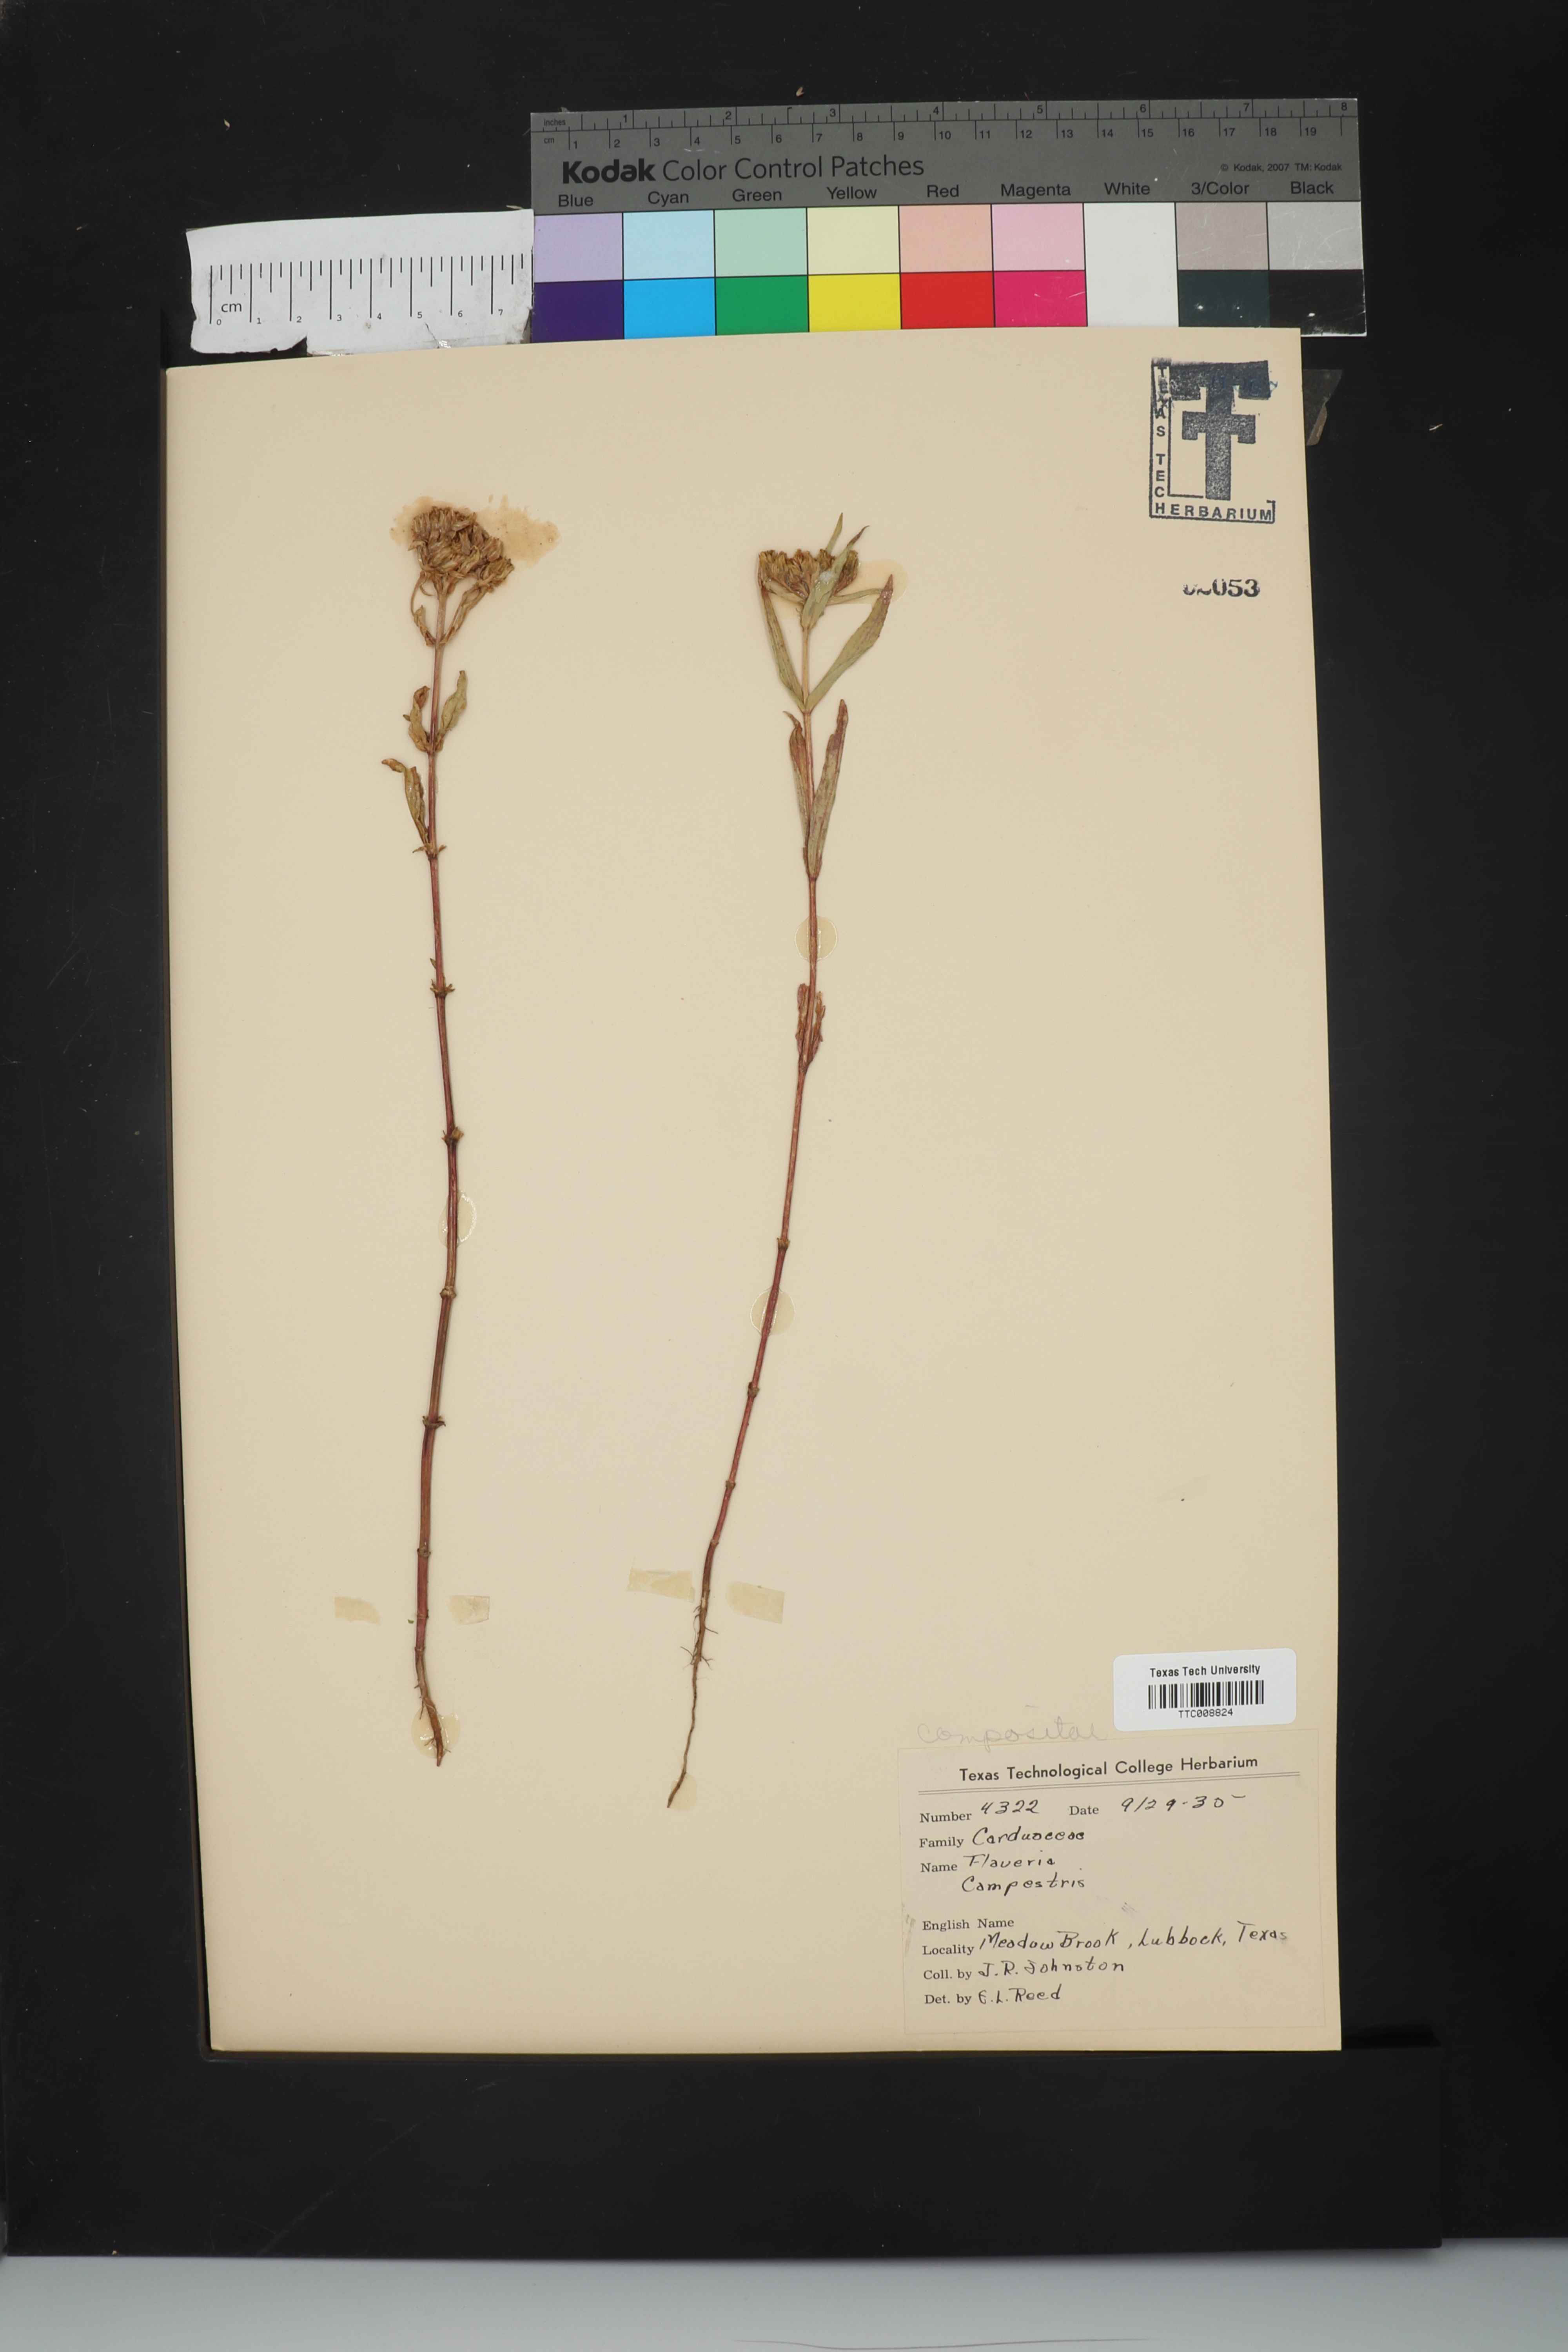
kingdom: Plantae
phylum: Tracheophyta
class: Magnoliopsida
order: Asterales
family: Asteraceae
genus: Flaveria
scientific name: Flaveria campestris
